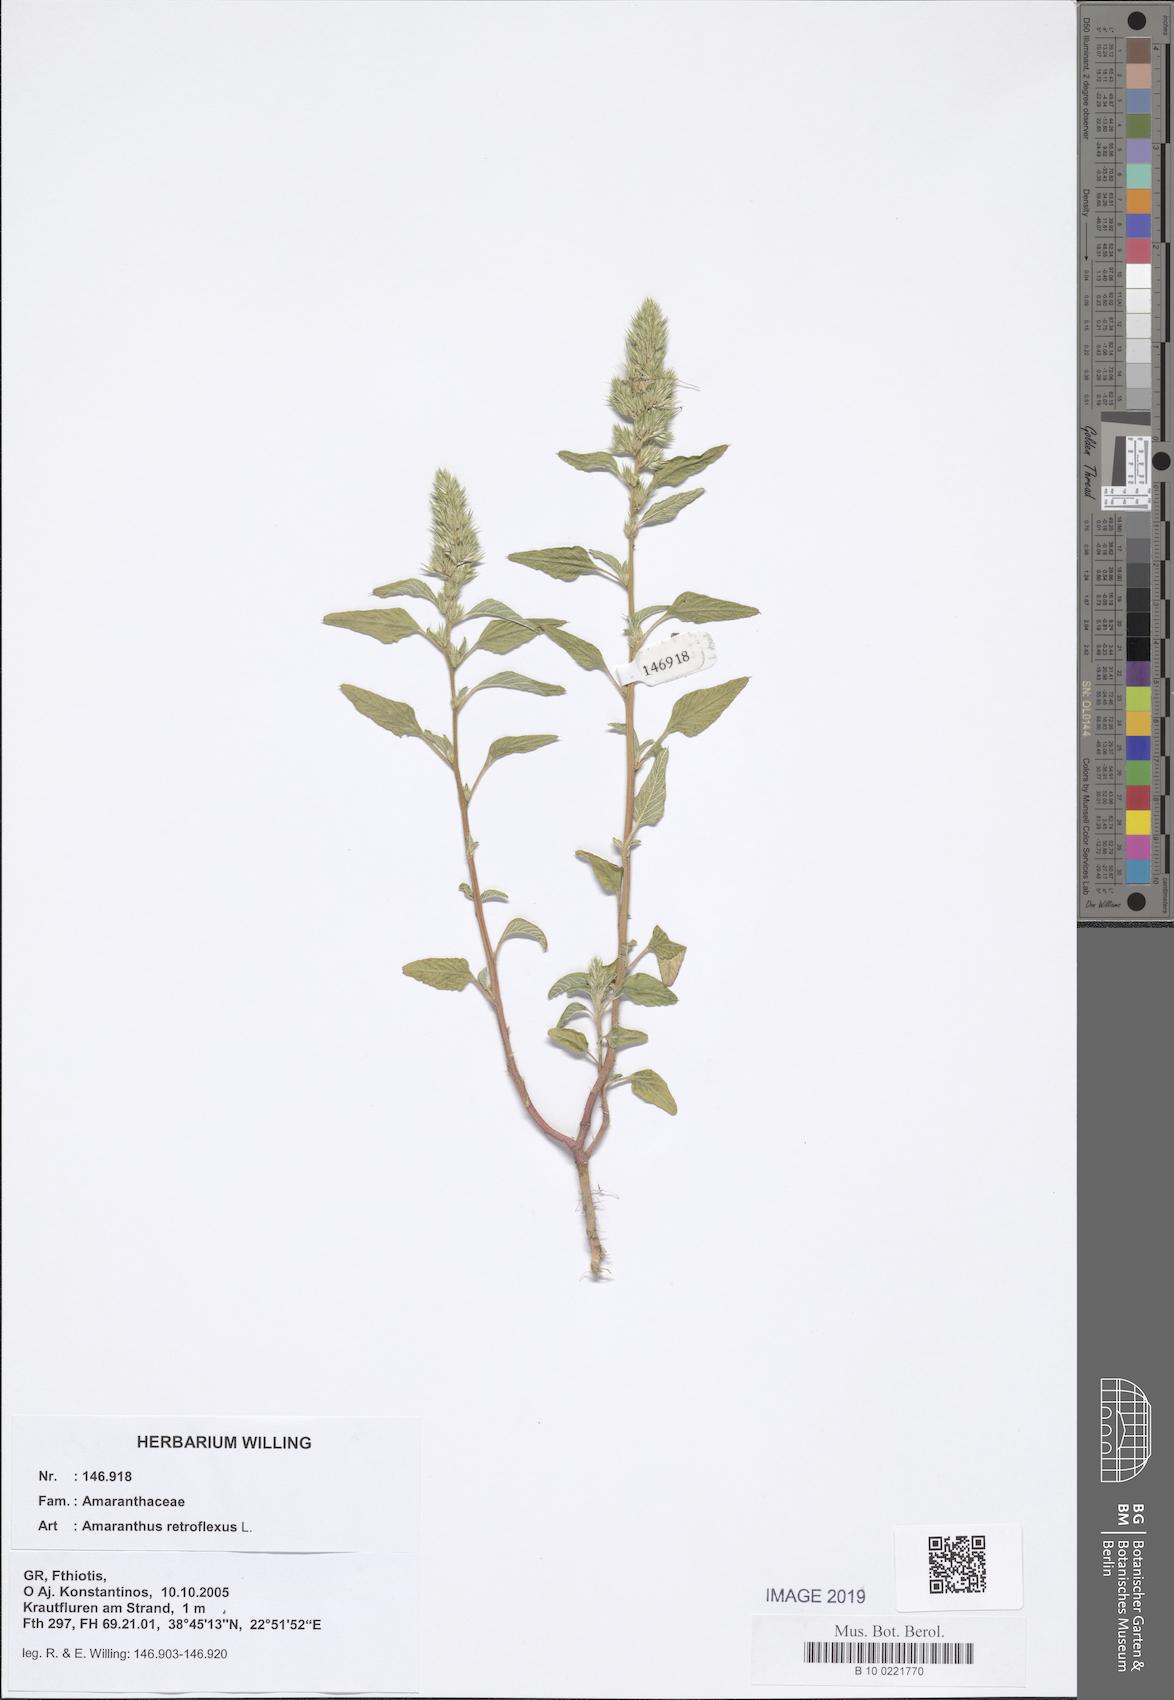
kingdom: Plantae
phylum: Tracheophyta
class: Magnoliopsida
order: Caryophyllales
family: Amaranthaceae
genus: Amaranthus
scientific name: Amaranthus retroflexus
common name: Redroot amaranth
